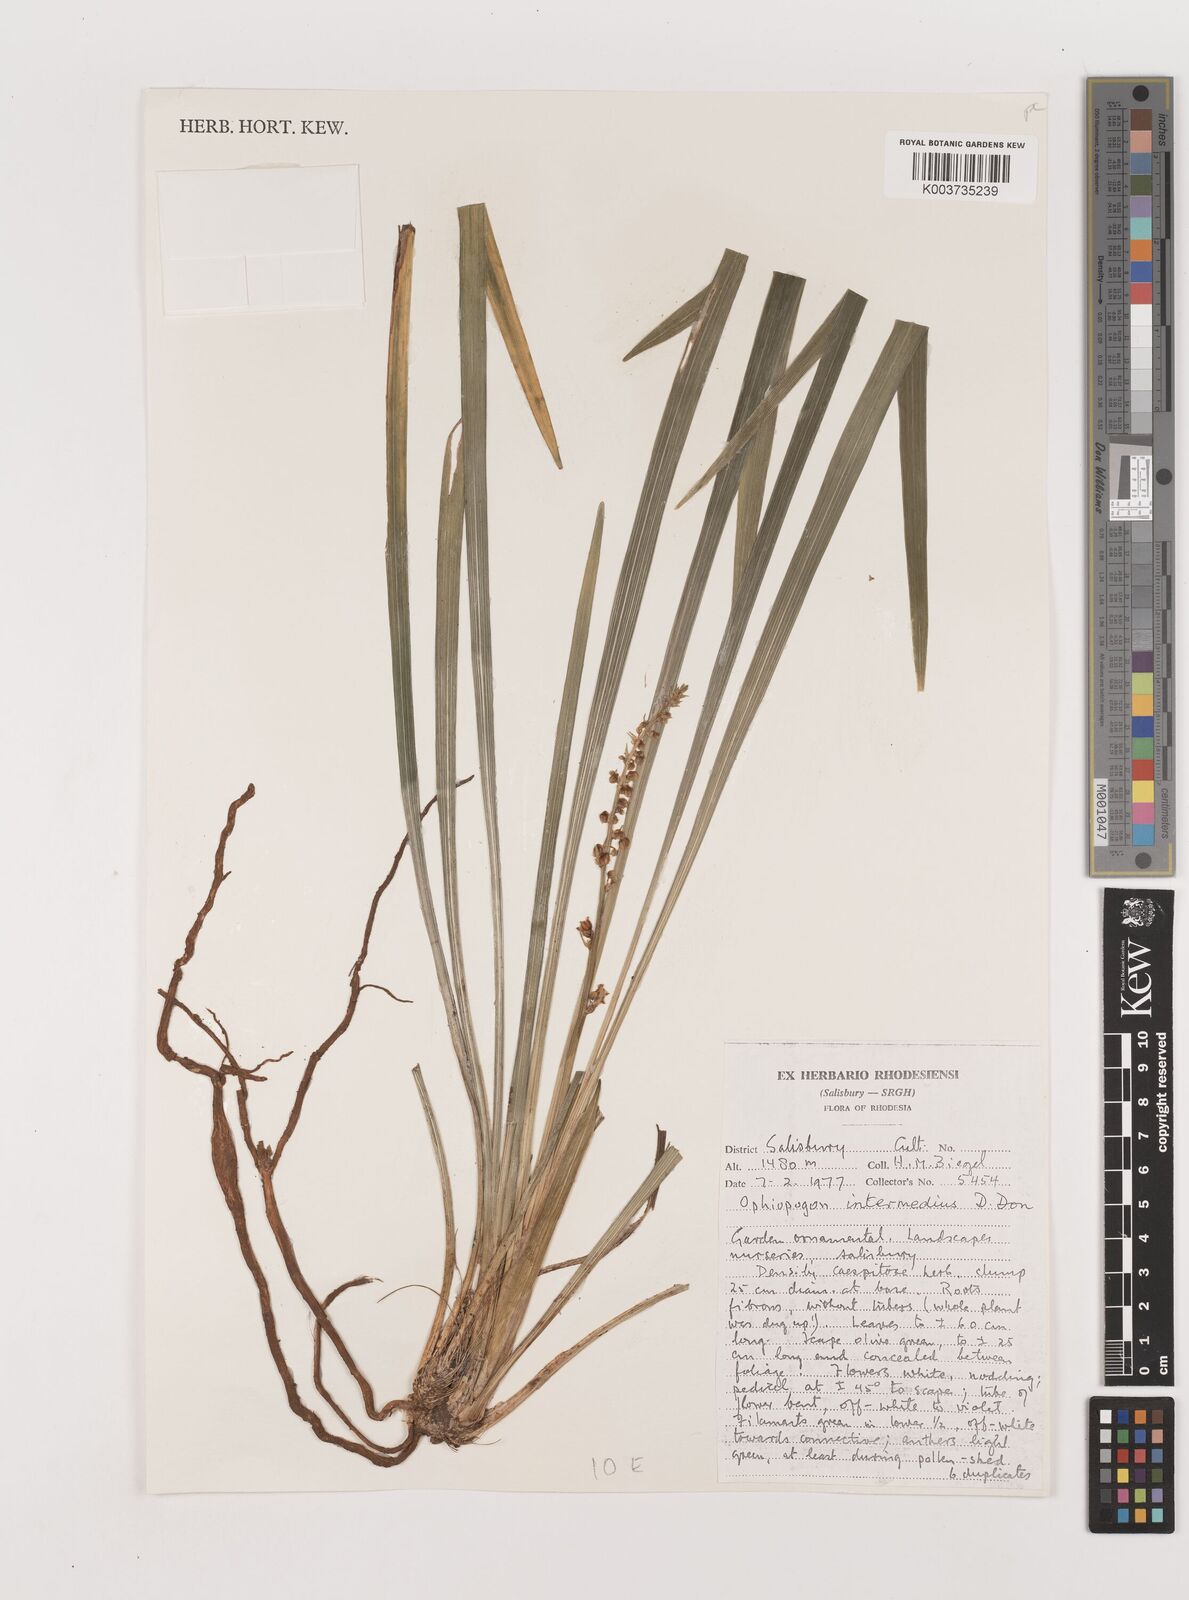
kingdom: Plantae
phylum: Tracheophyta
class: Liliopsida
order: Asparagales
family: Asparagaceae
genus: Ophiopogon
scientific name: Ophiopogon intermedius
